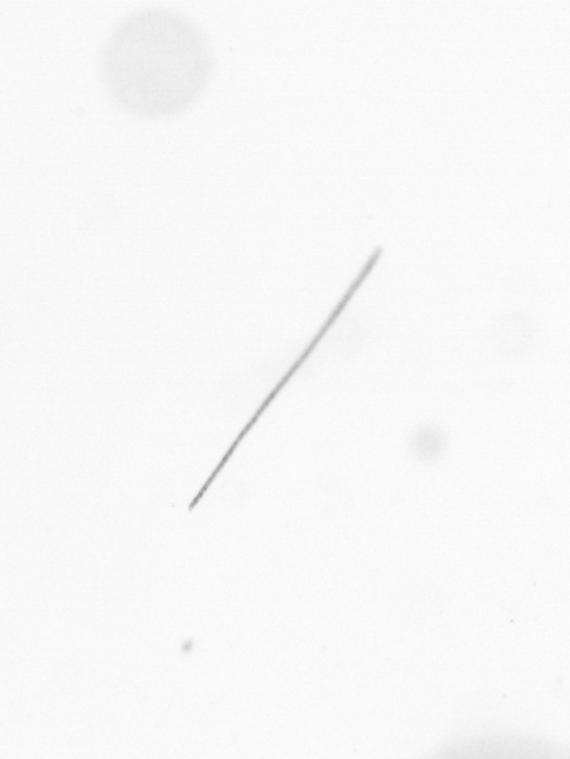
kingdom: Chromista
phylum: Ochrophyta
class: Bacillariophyceae
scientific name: Bacillariophyceae
